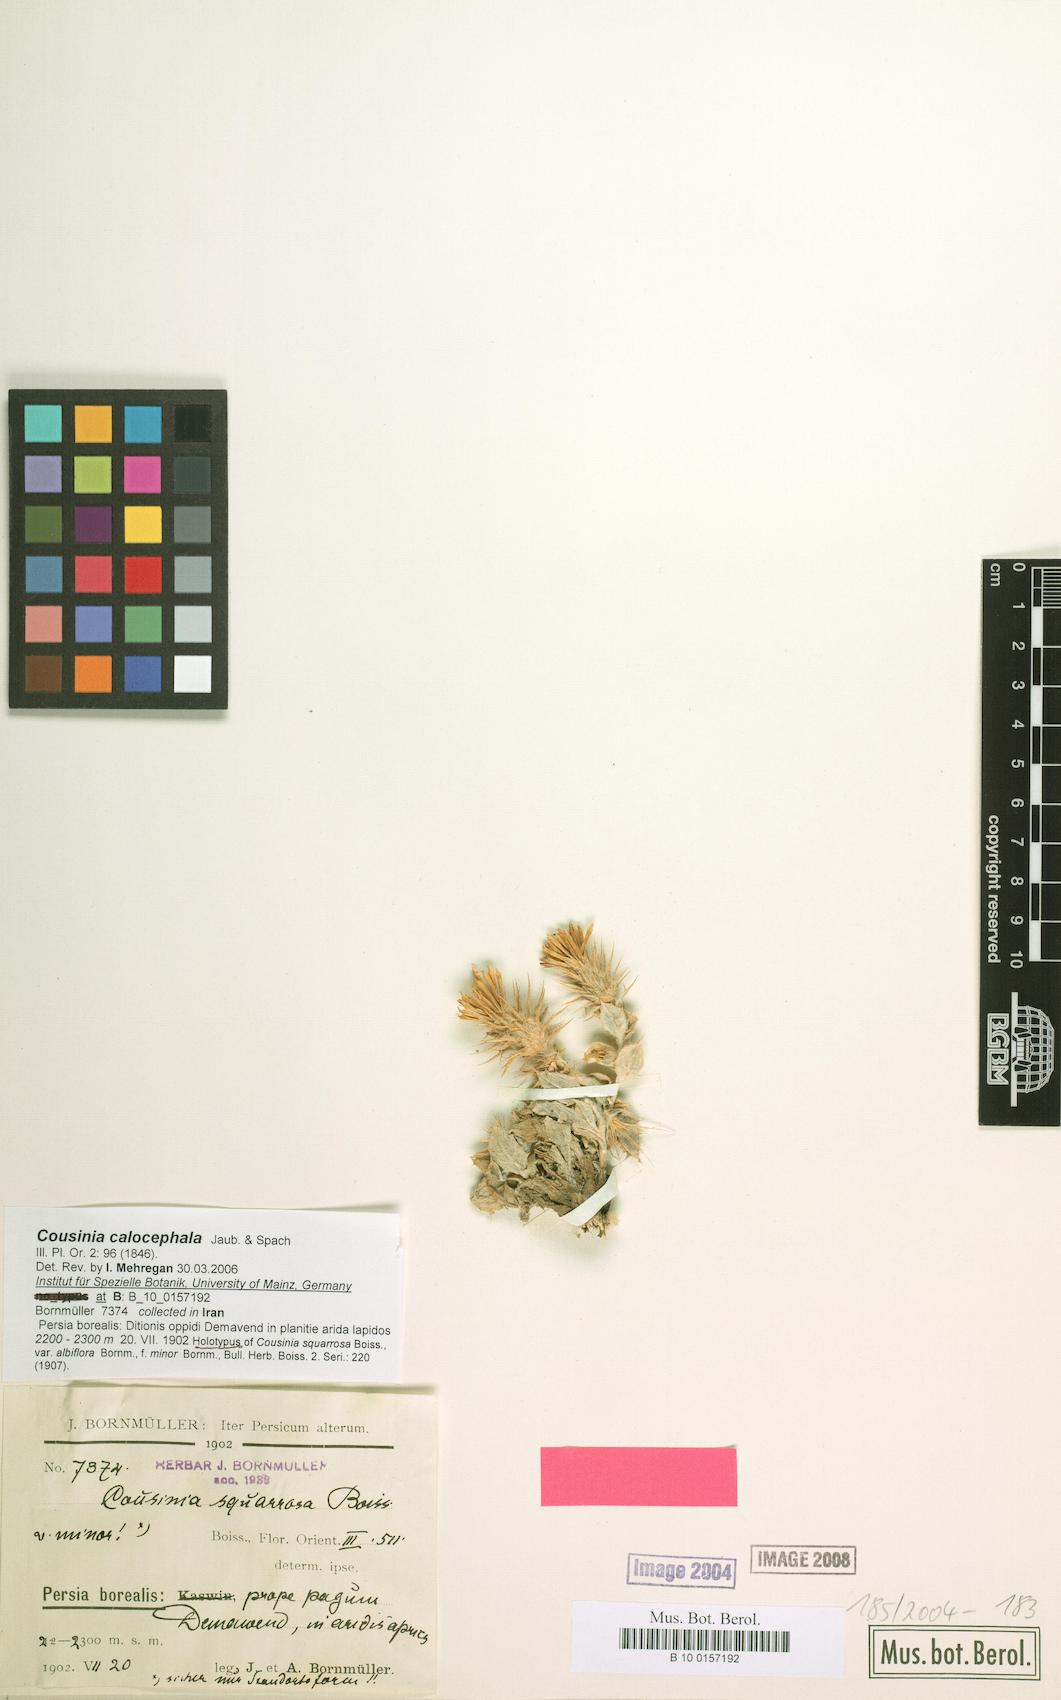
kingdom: Plantae
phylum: Tracheophyta
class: Magnoliopsida
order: Asterales
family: Asteraceae
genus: Cousinia
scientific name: Cousinia calocephala
